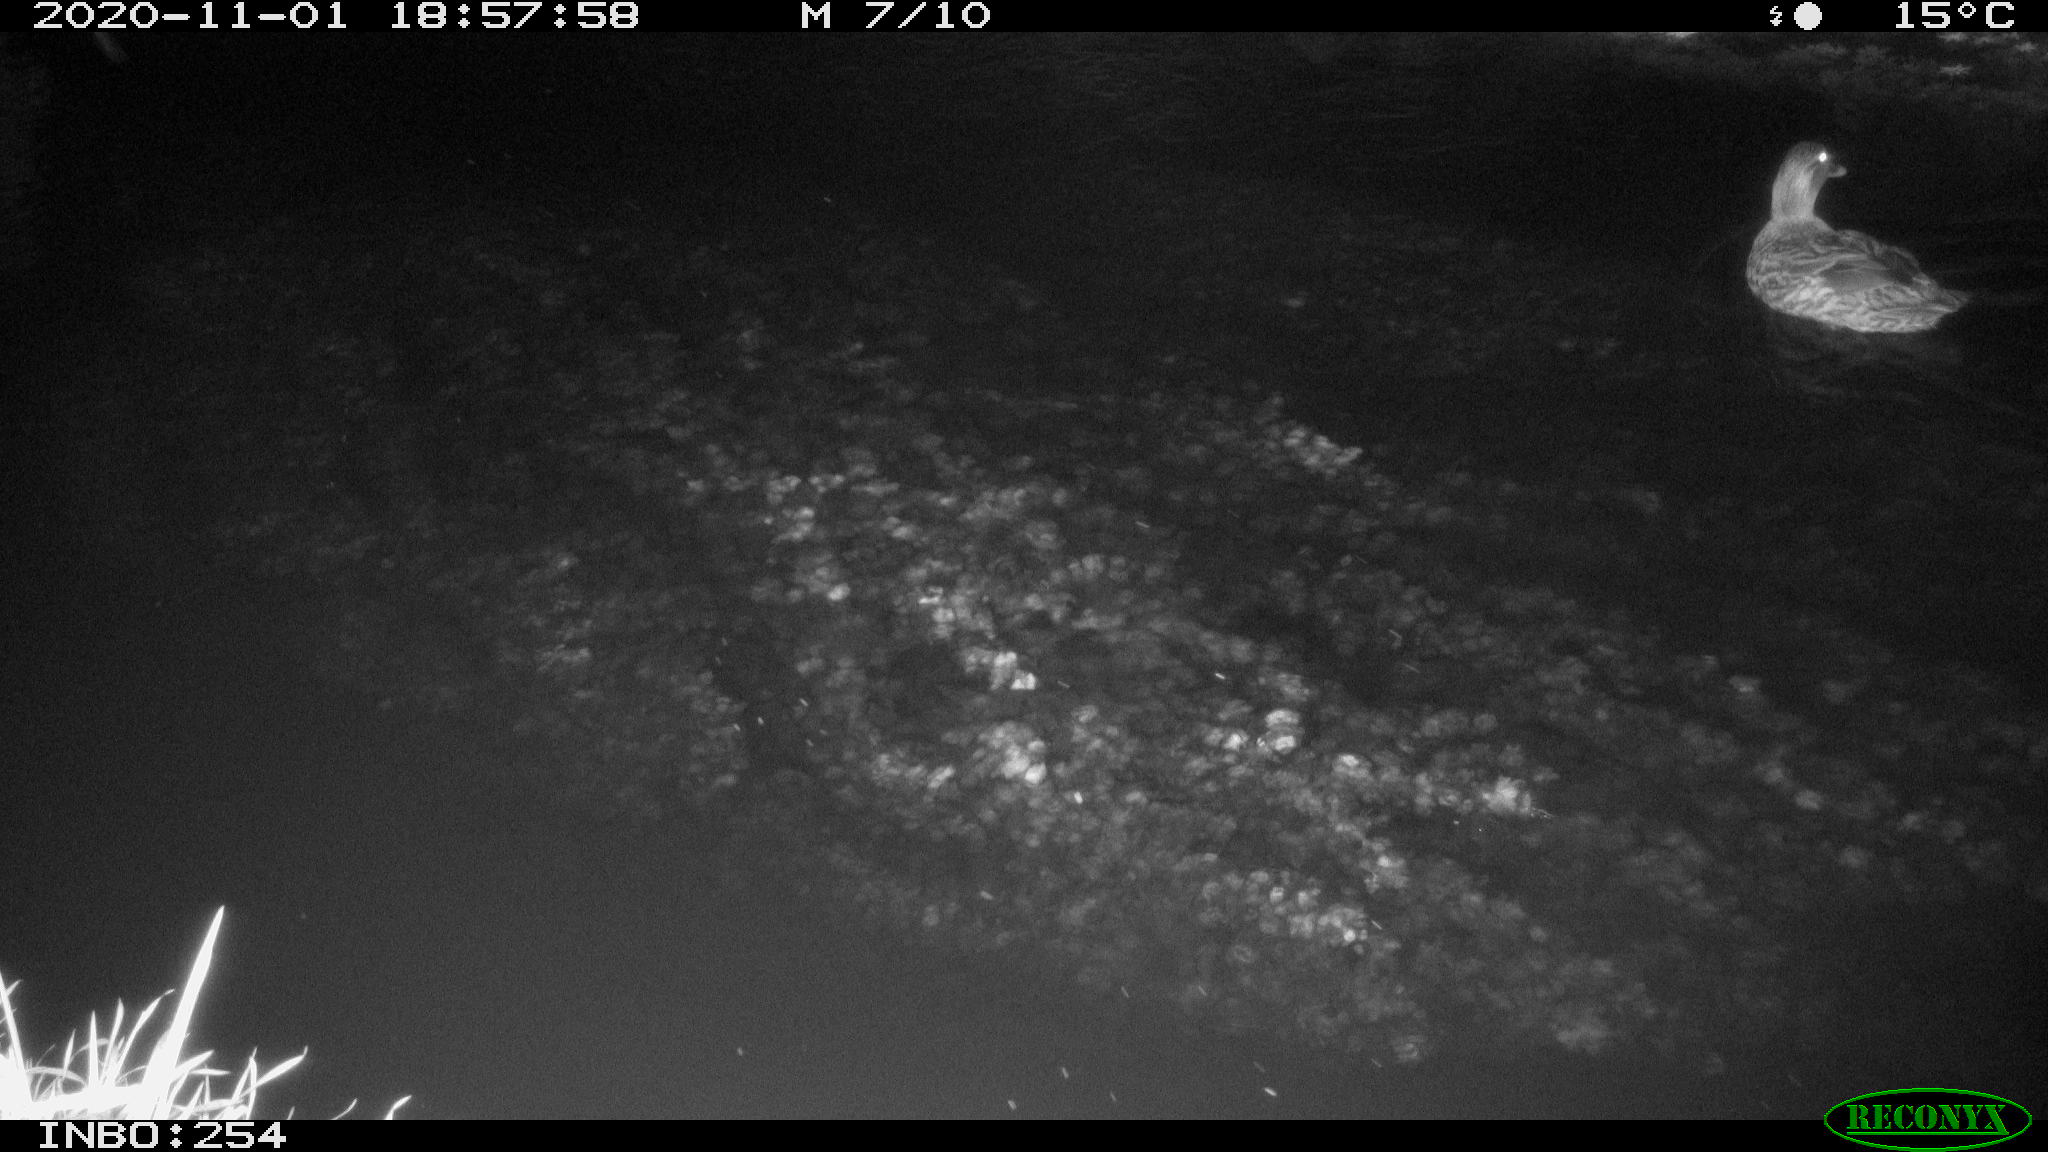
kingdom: Animalia
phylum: Chordata
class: Aves
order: Anseriformes
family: Anatidae
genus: Anas
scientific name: Anas platyrhynchos
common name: Mallard
